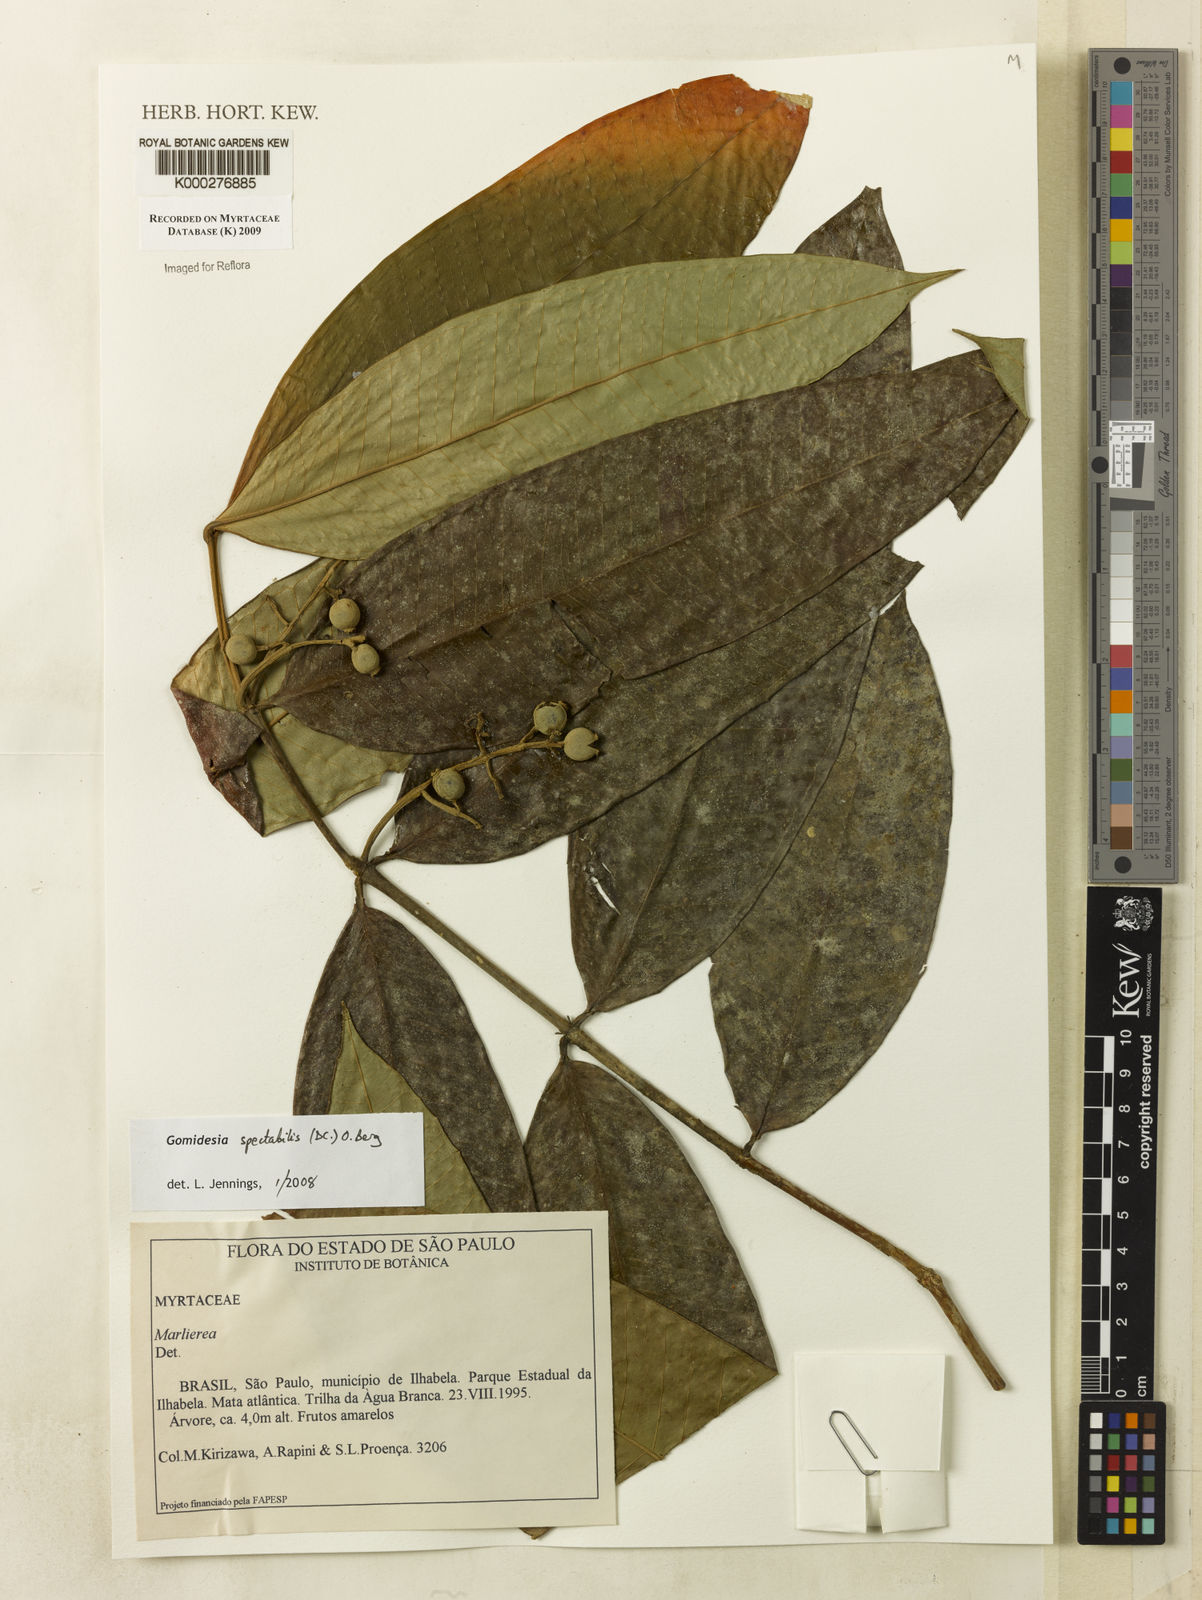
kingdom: Plantae
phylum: Tracheophyta
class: Magnoliopsida
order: Myrtales
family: Myrtaceae
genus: Myrcia
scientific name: Myrcia spectabilis
